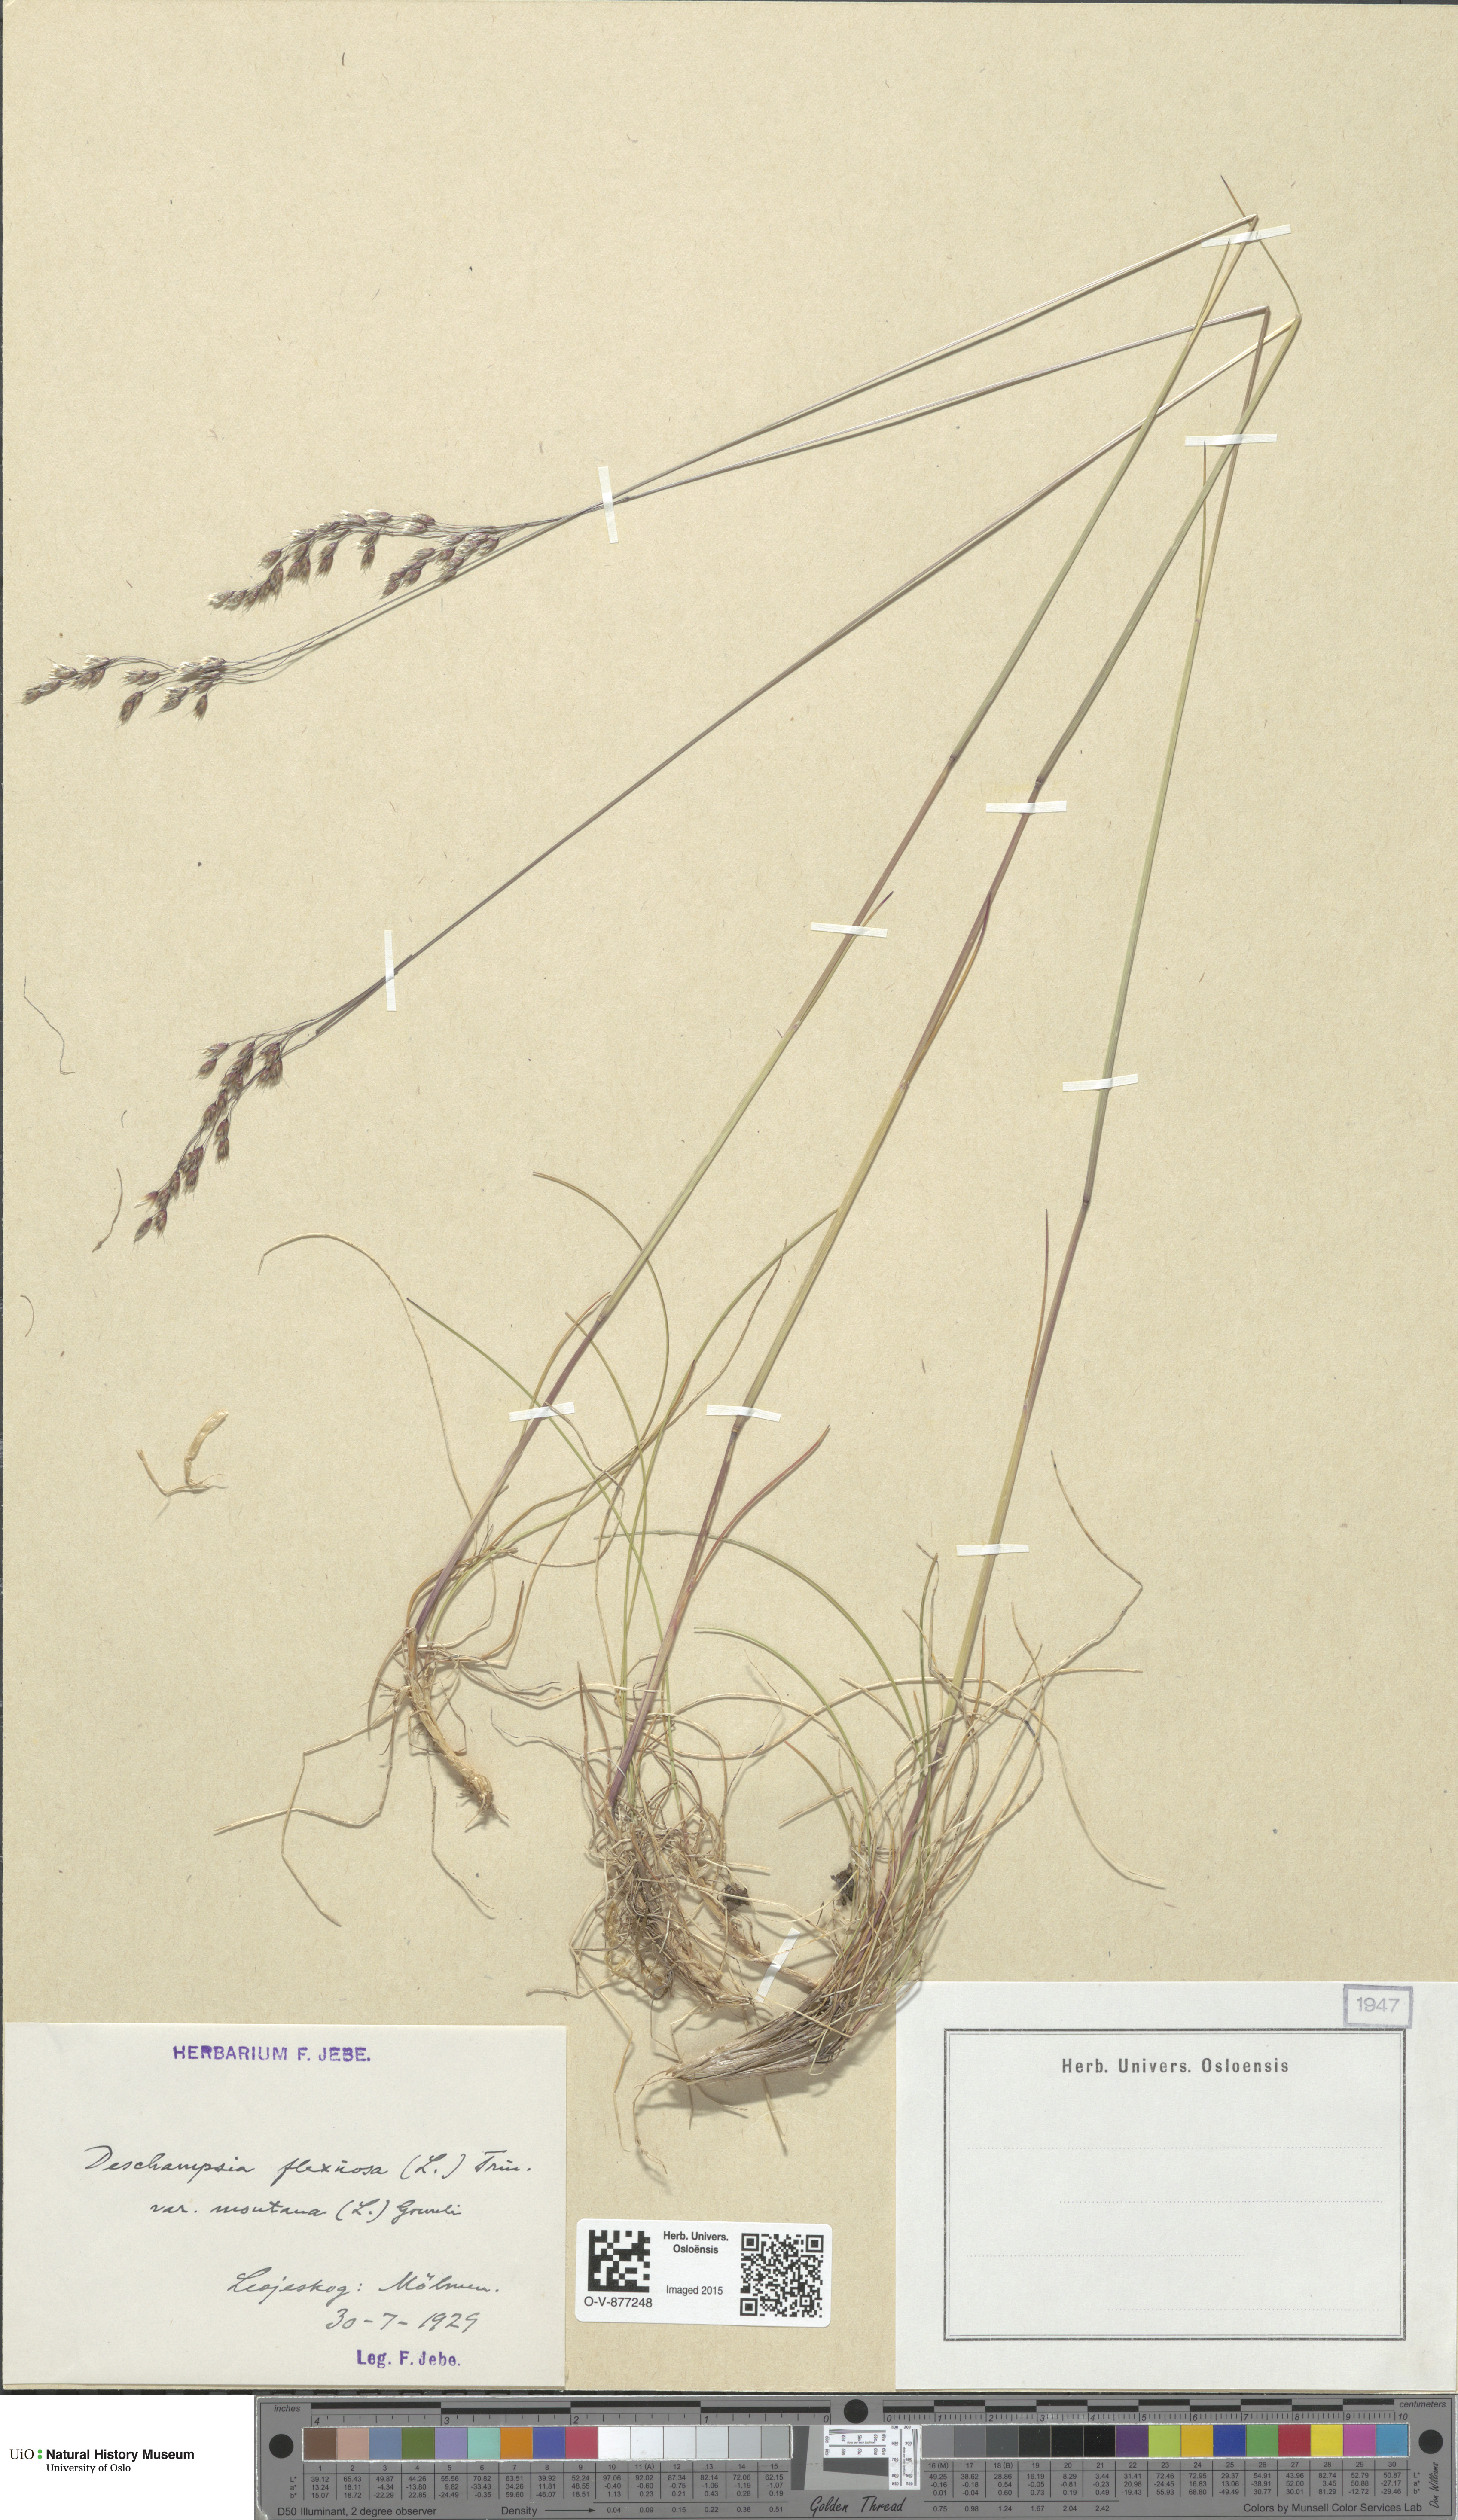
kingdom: Plantae
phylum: Tracheophyta
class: Liliopsida
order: Poales
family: Poaceae
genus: Avenella
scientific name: Avenella flexuosa
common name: Wavy hairgrass
